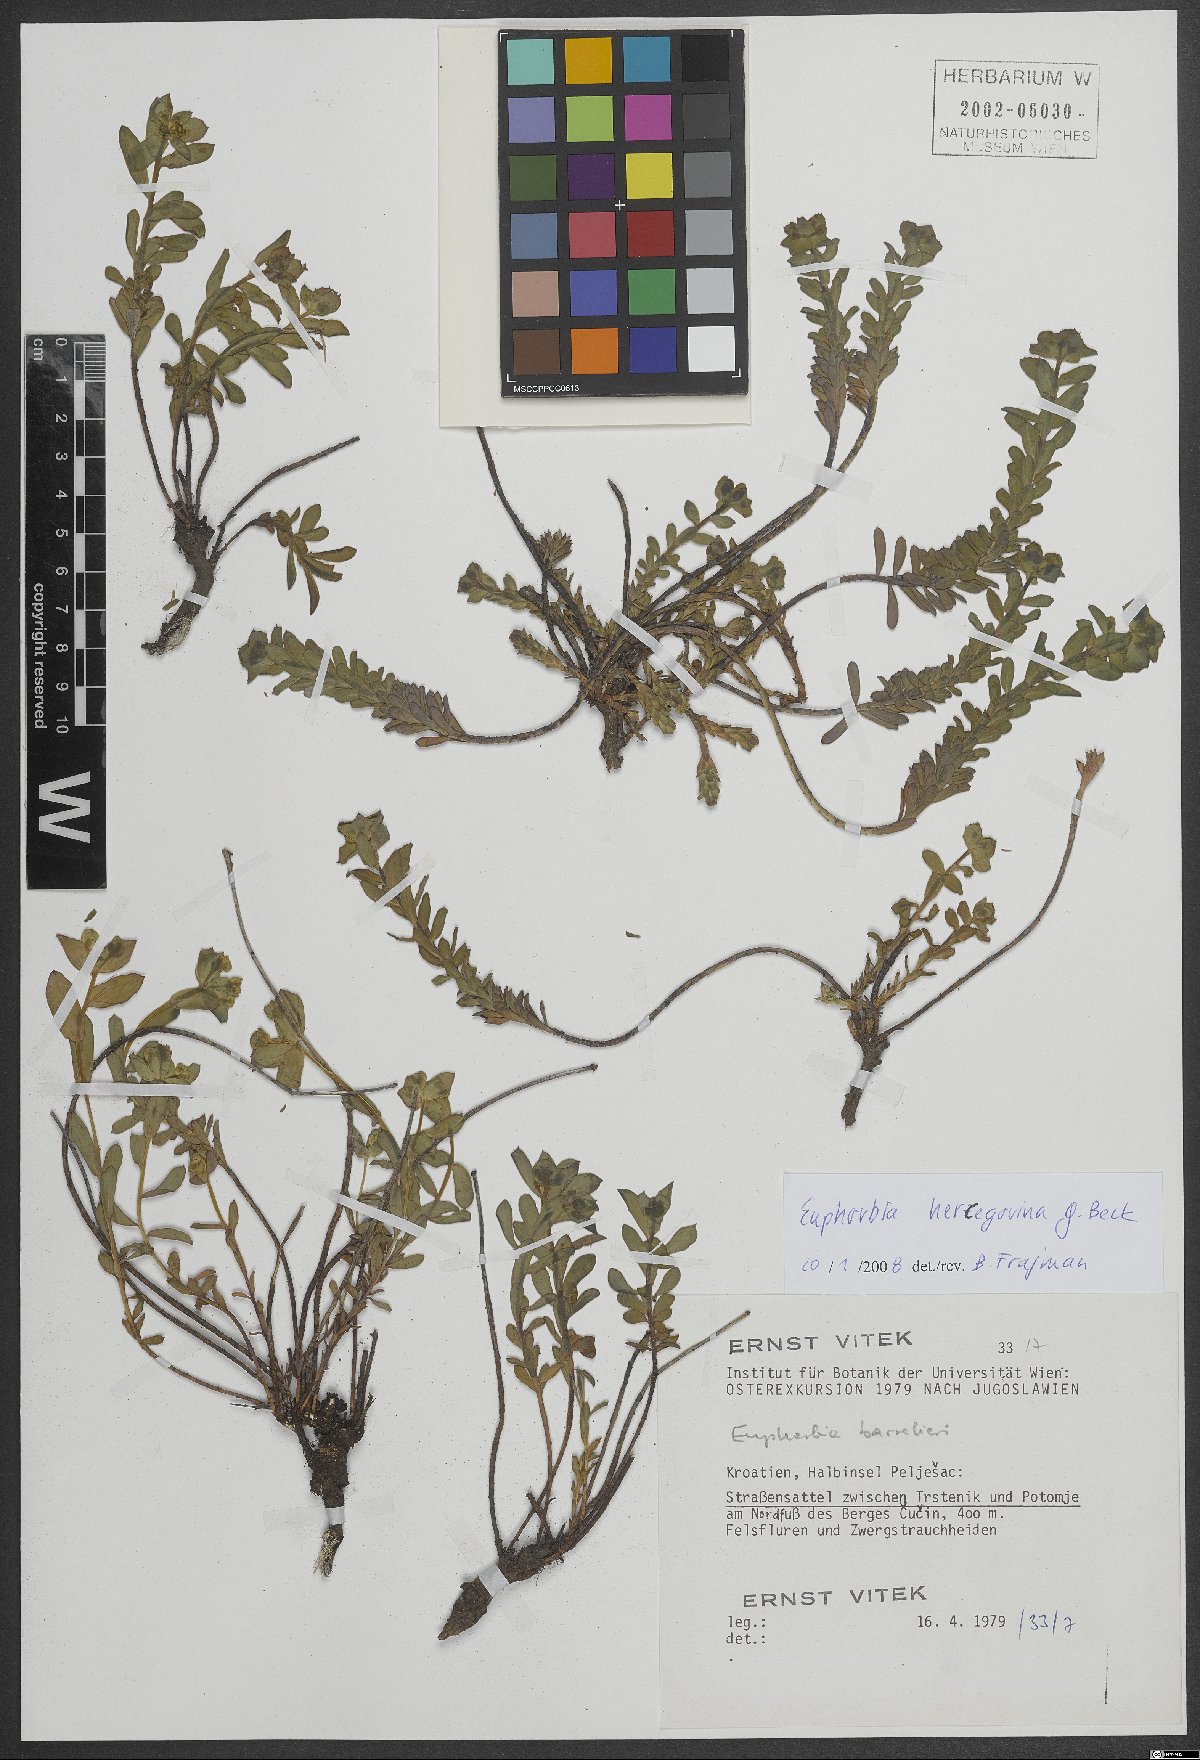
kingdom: Plantae
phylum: Tracheophyta
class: Magnoliopsida
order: Malpighiales
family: Euphorbiaceae
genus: Euphorbia
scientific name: Euphorbia barrelieri
